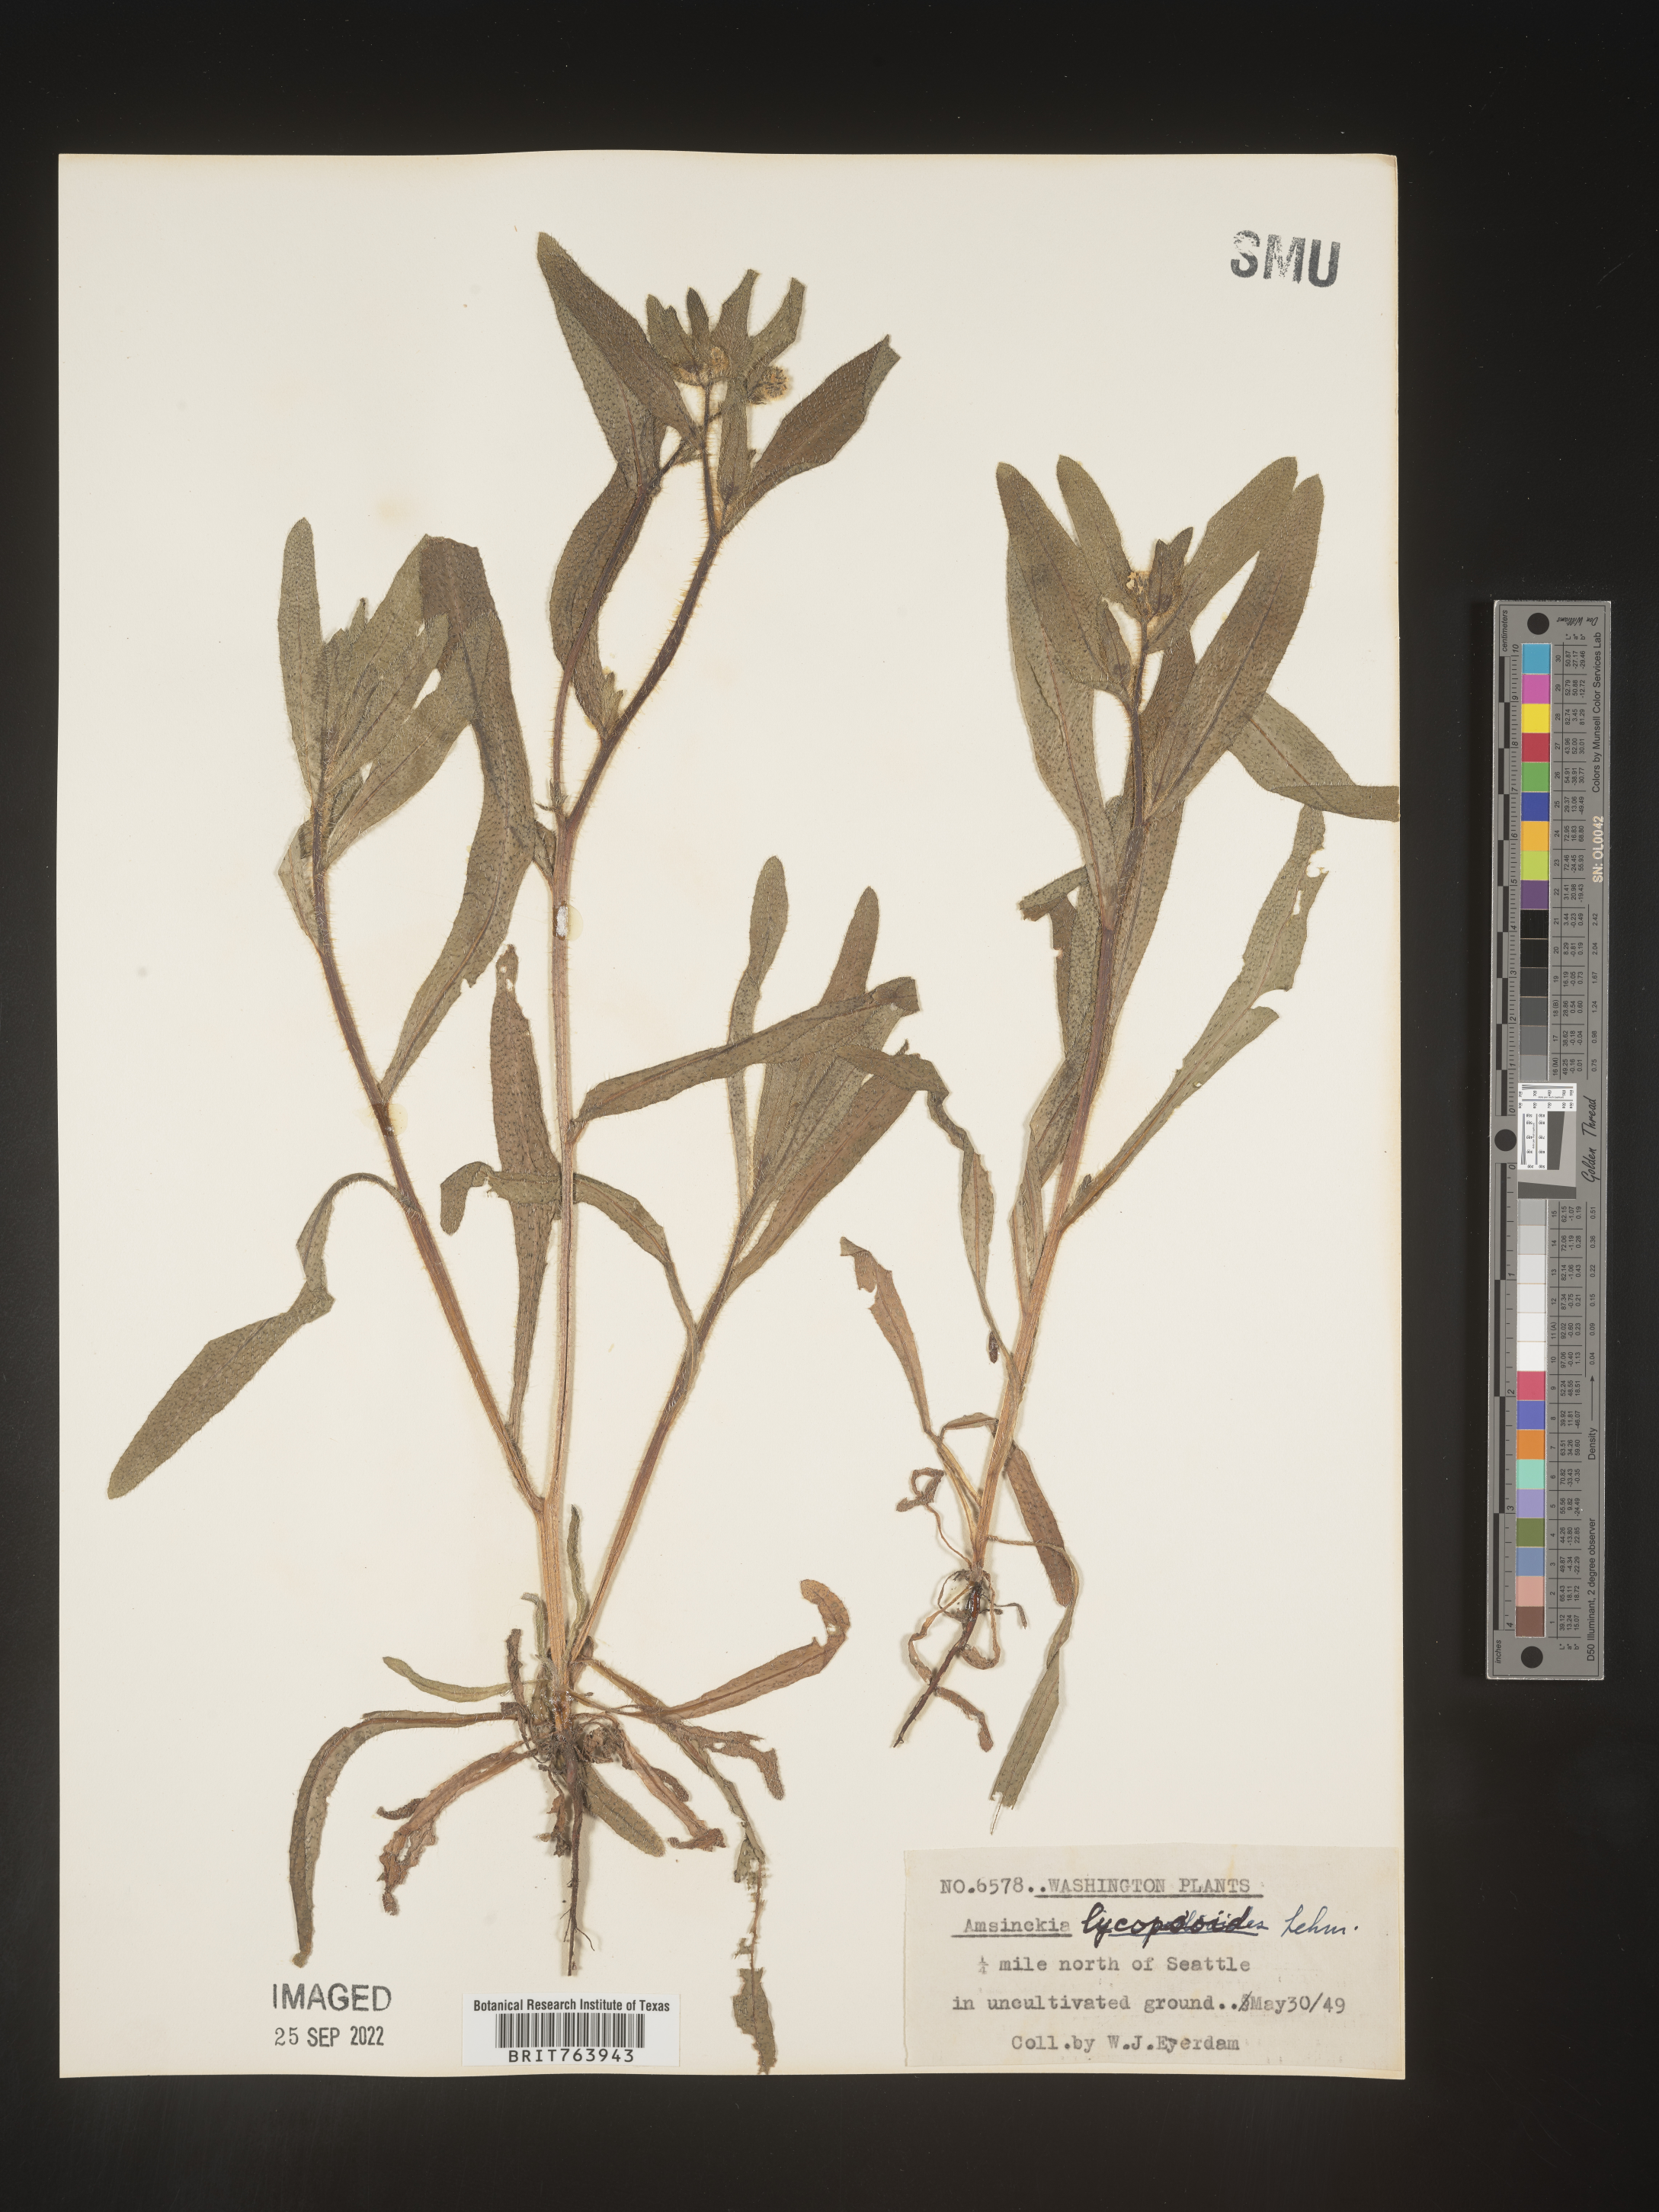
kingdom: Plantae
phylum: Tracheophyta
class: Magnoliopsida
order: Boraginales
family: Boraginaceae
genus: Amsinckia
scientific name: Amsinckia
